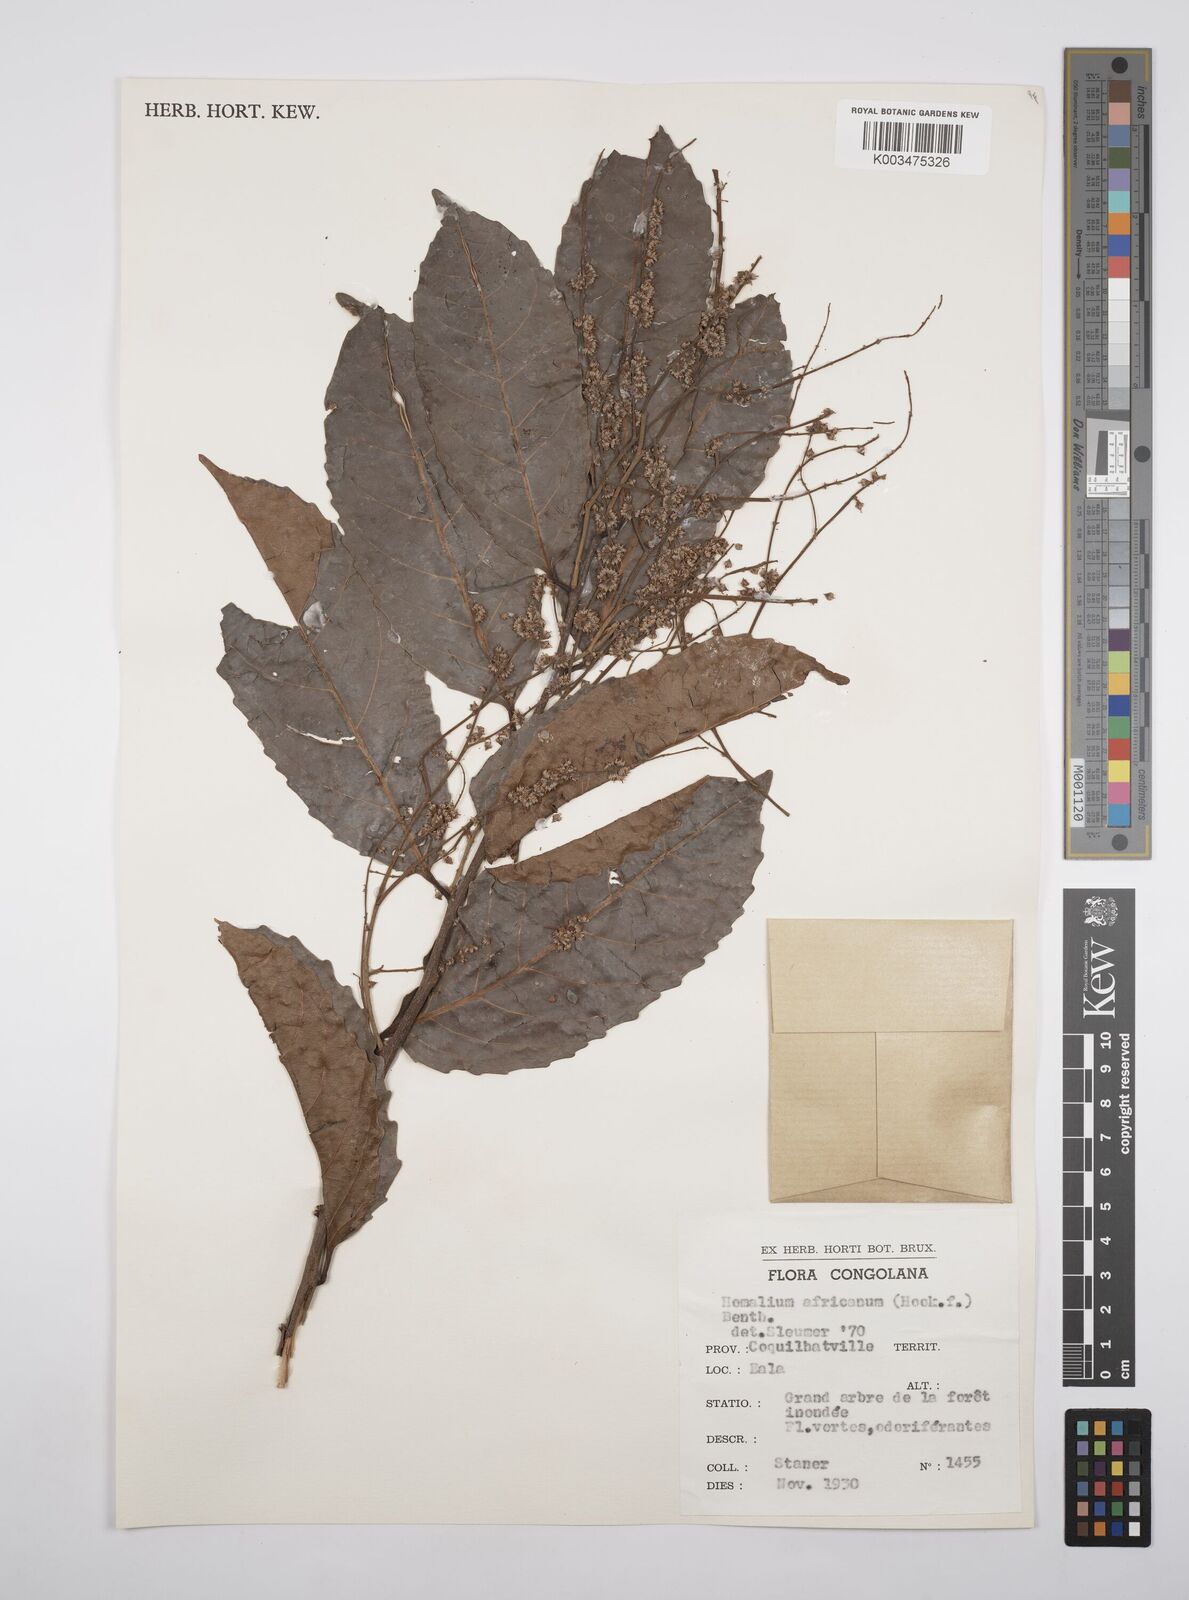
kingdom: Plantae
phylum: Tracheophyta
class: Magnoliopsida
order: Malpighiales
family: Salicaceae
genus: Homalium
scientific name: Homalium africanum
